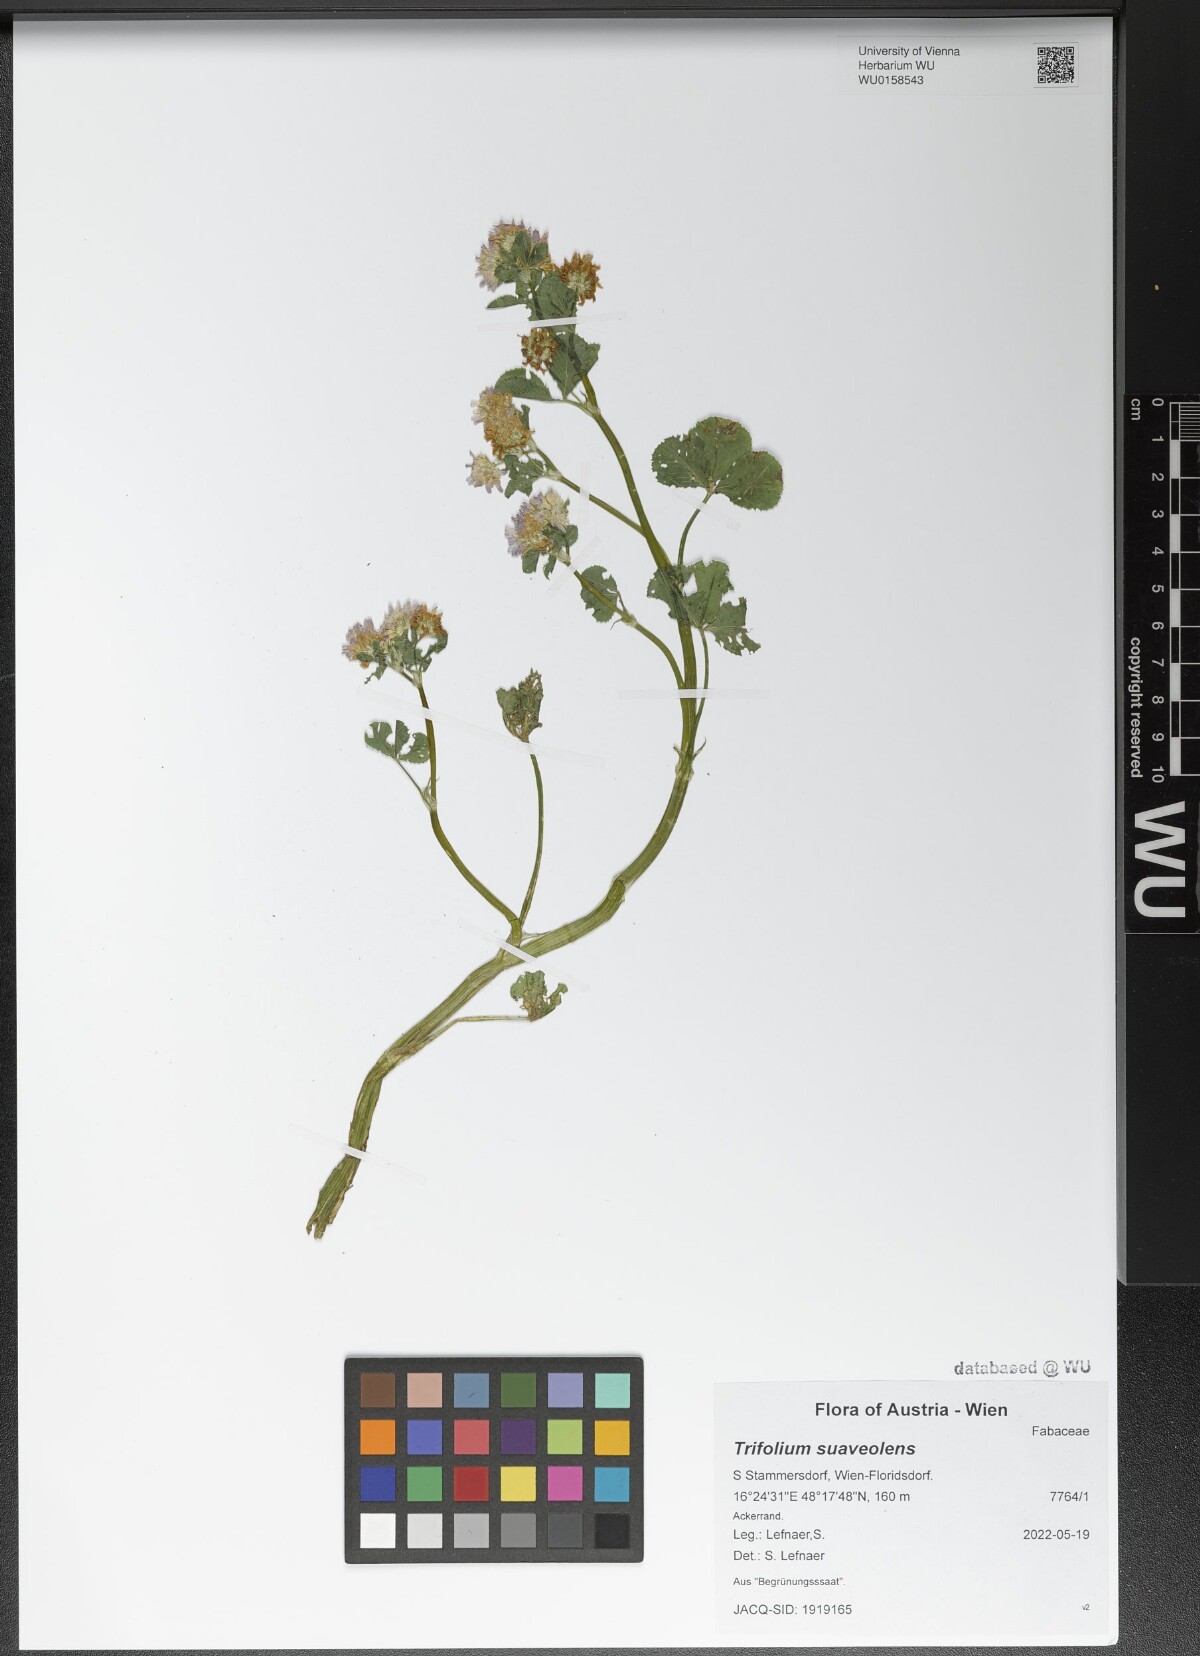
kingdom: Plantae
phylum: Tracheophyta
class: Magnoliopsida
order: Fabales
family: Fabaceae
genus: Trifolium
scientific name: Trifolium resupinatum
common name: Reversed clover
